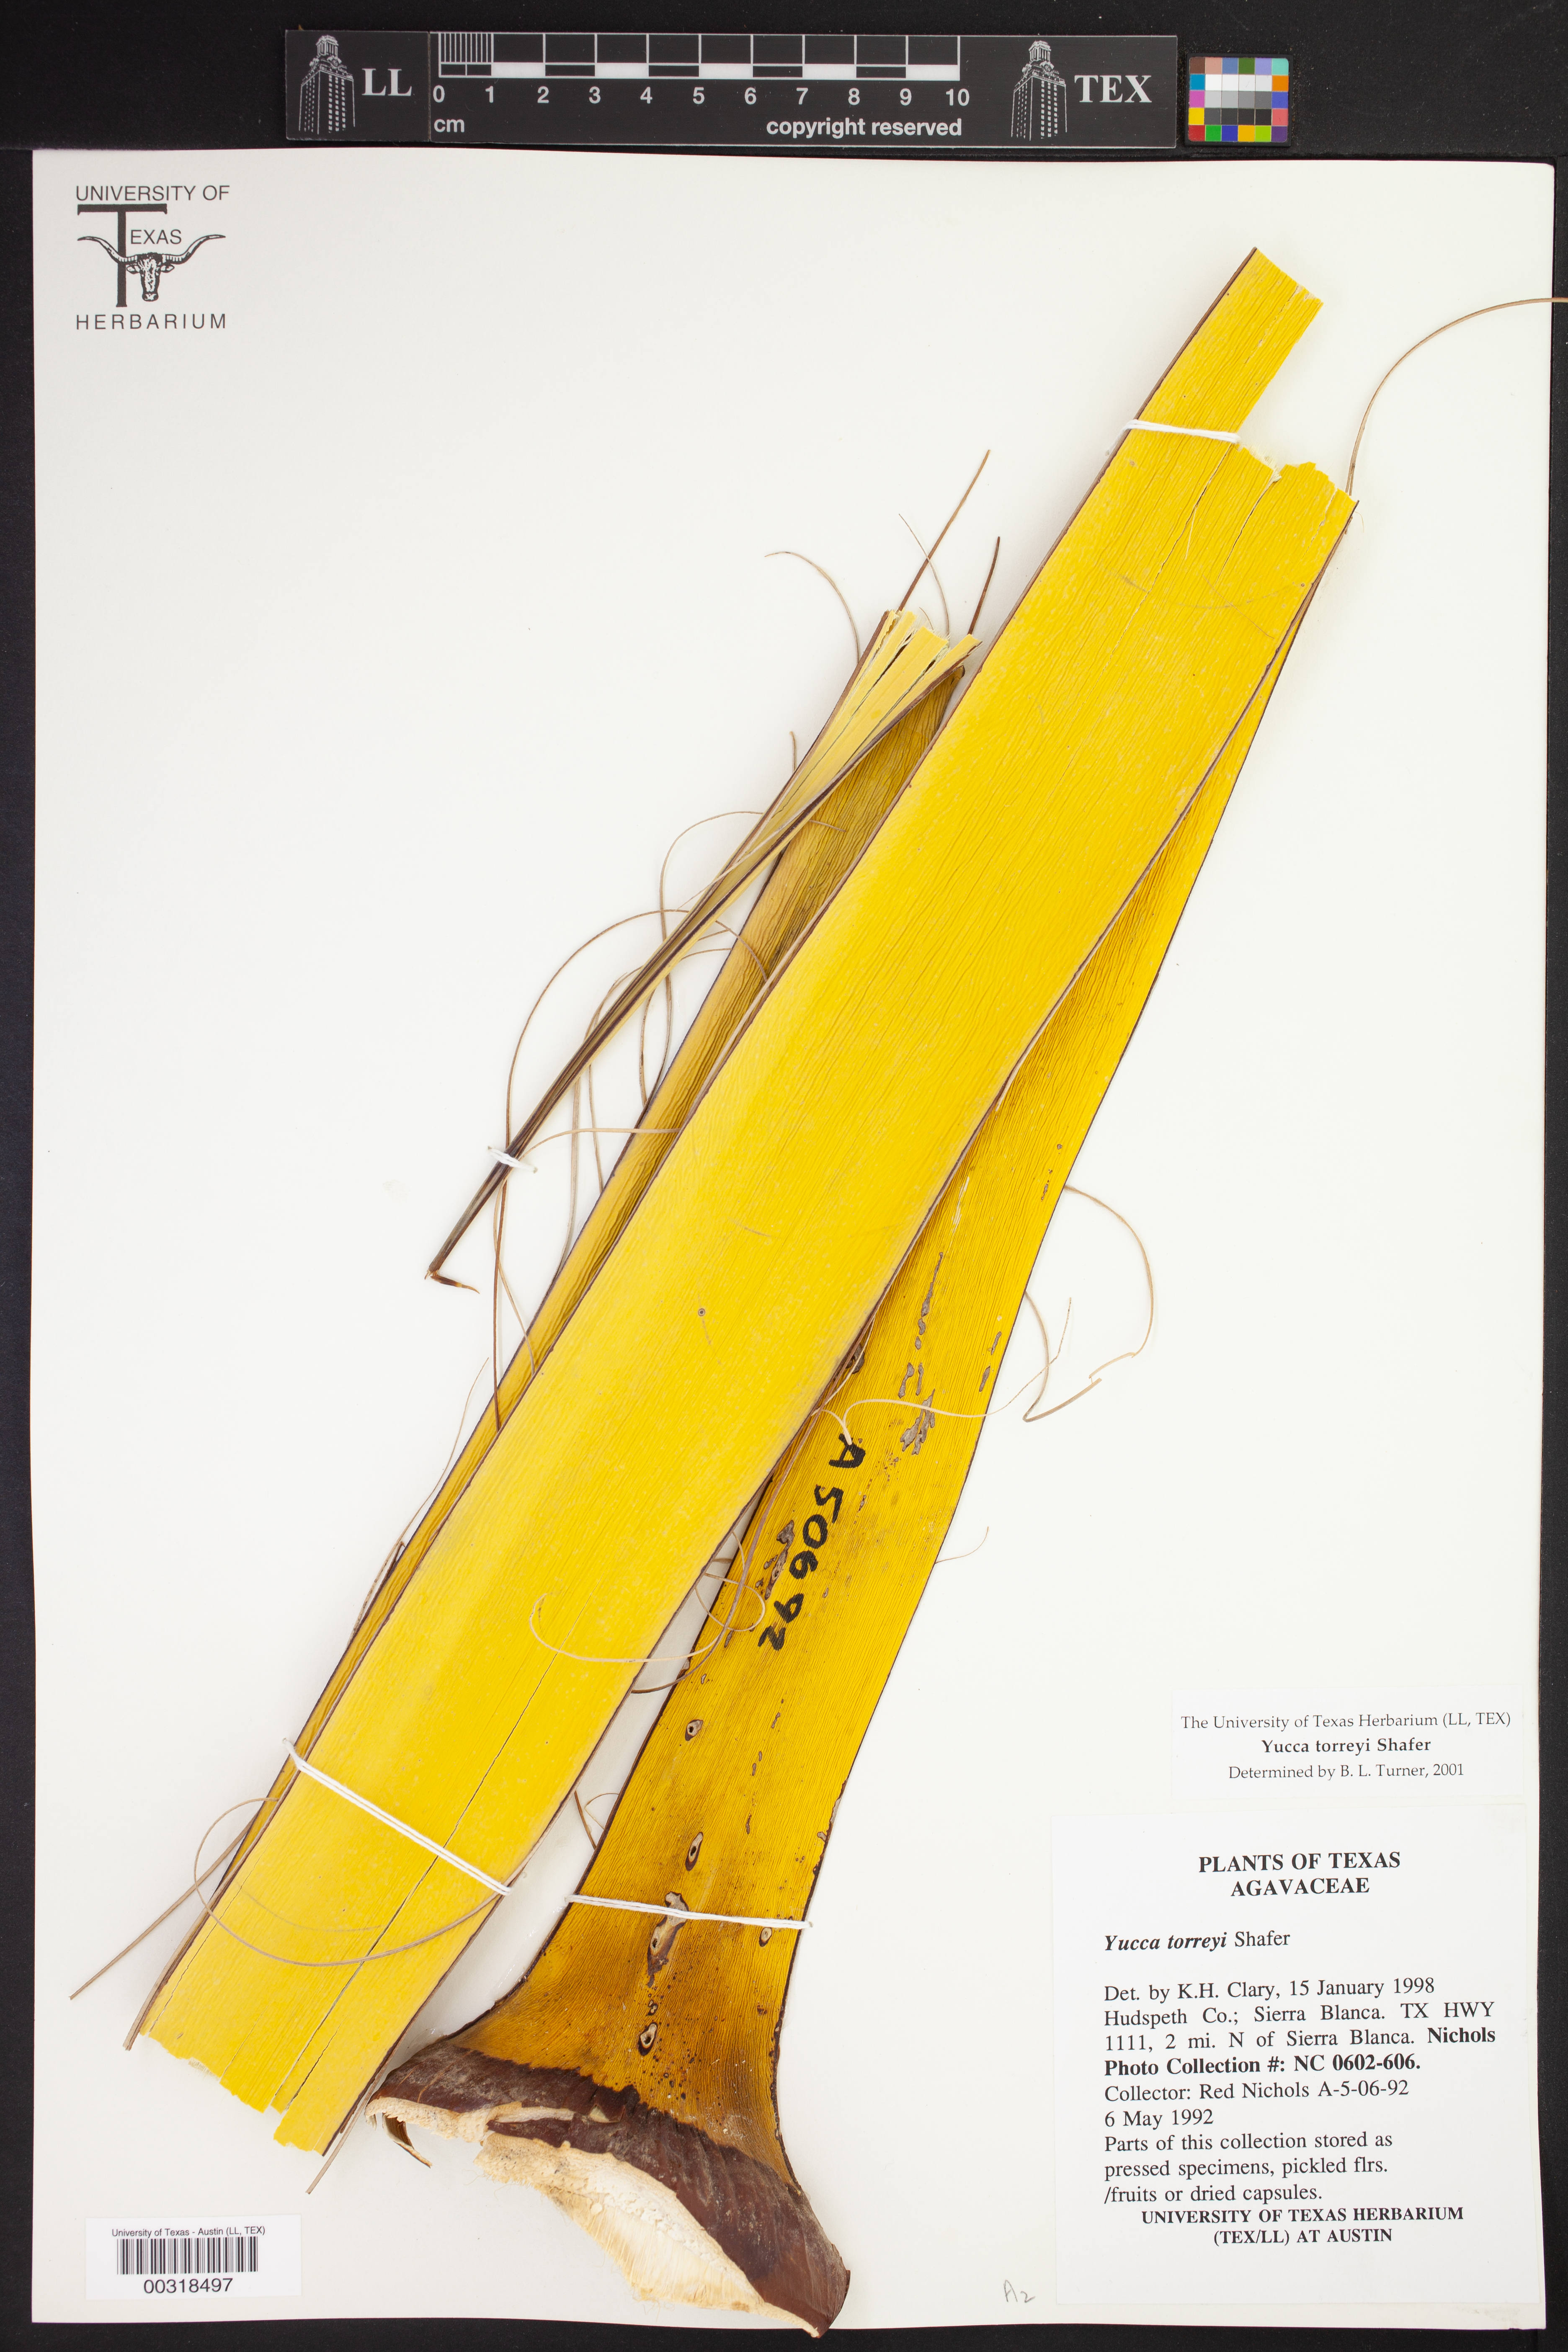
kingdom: Plantae
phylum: Tracheophyta
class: Liliopsida
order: Asparagales
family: Asparagaceae
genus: Yucca
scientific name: Yucca treculiana
